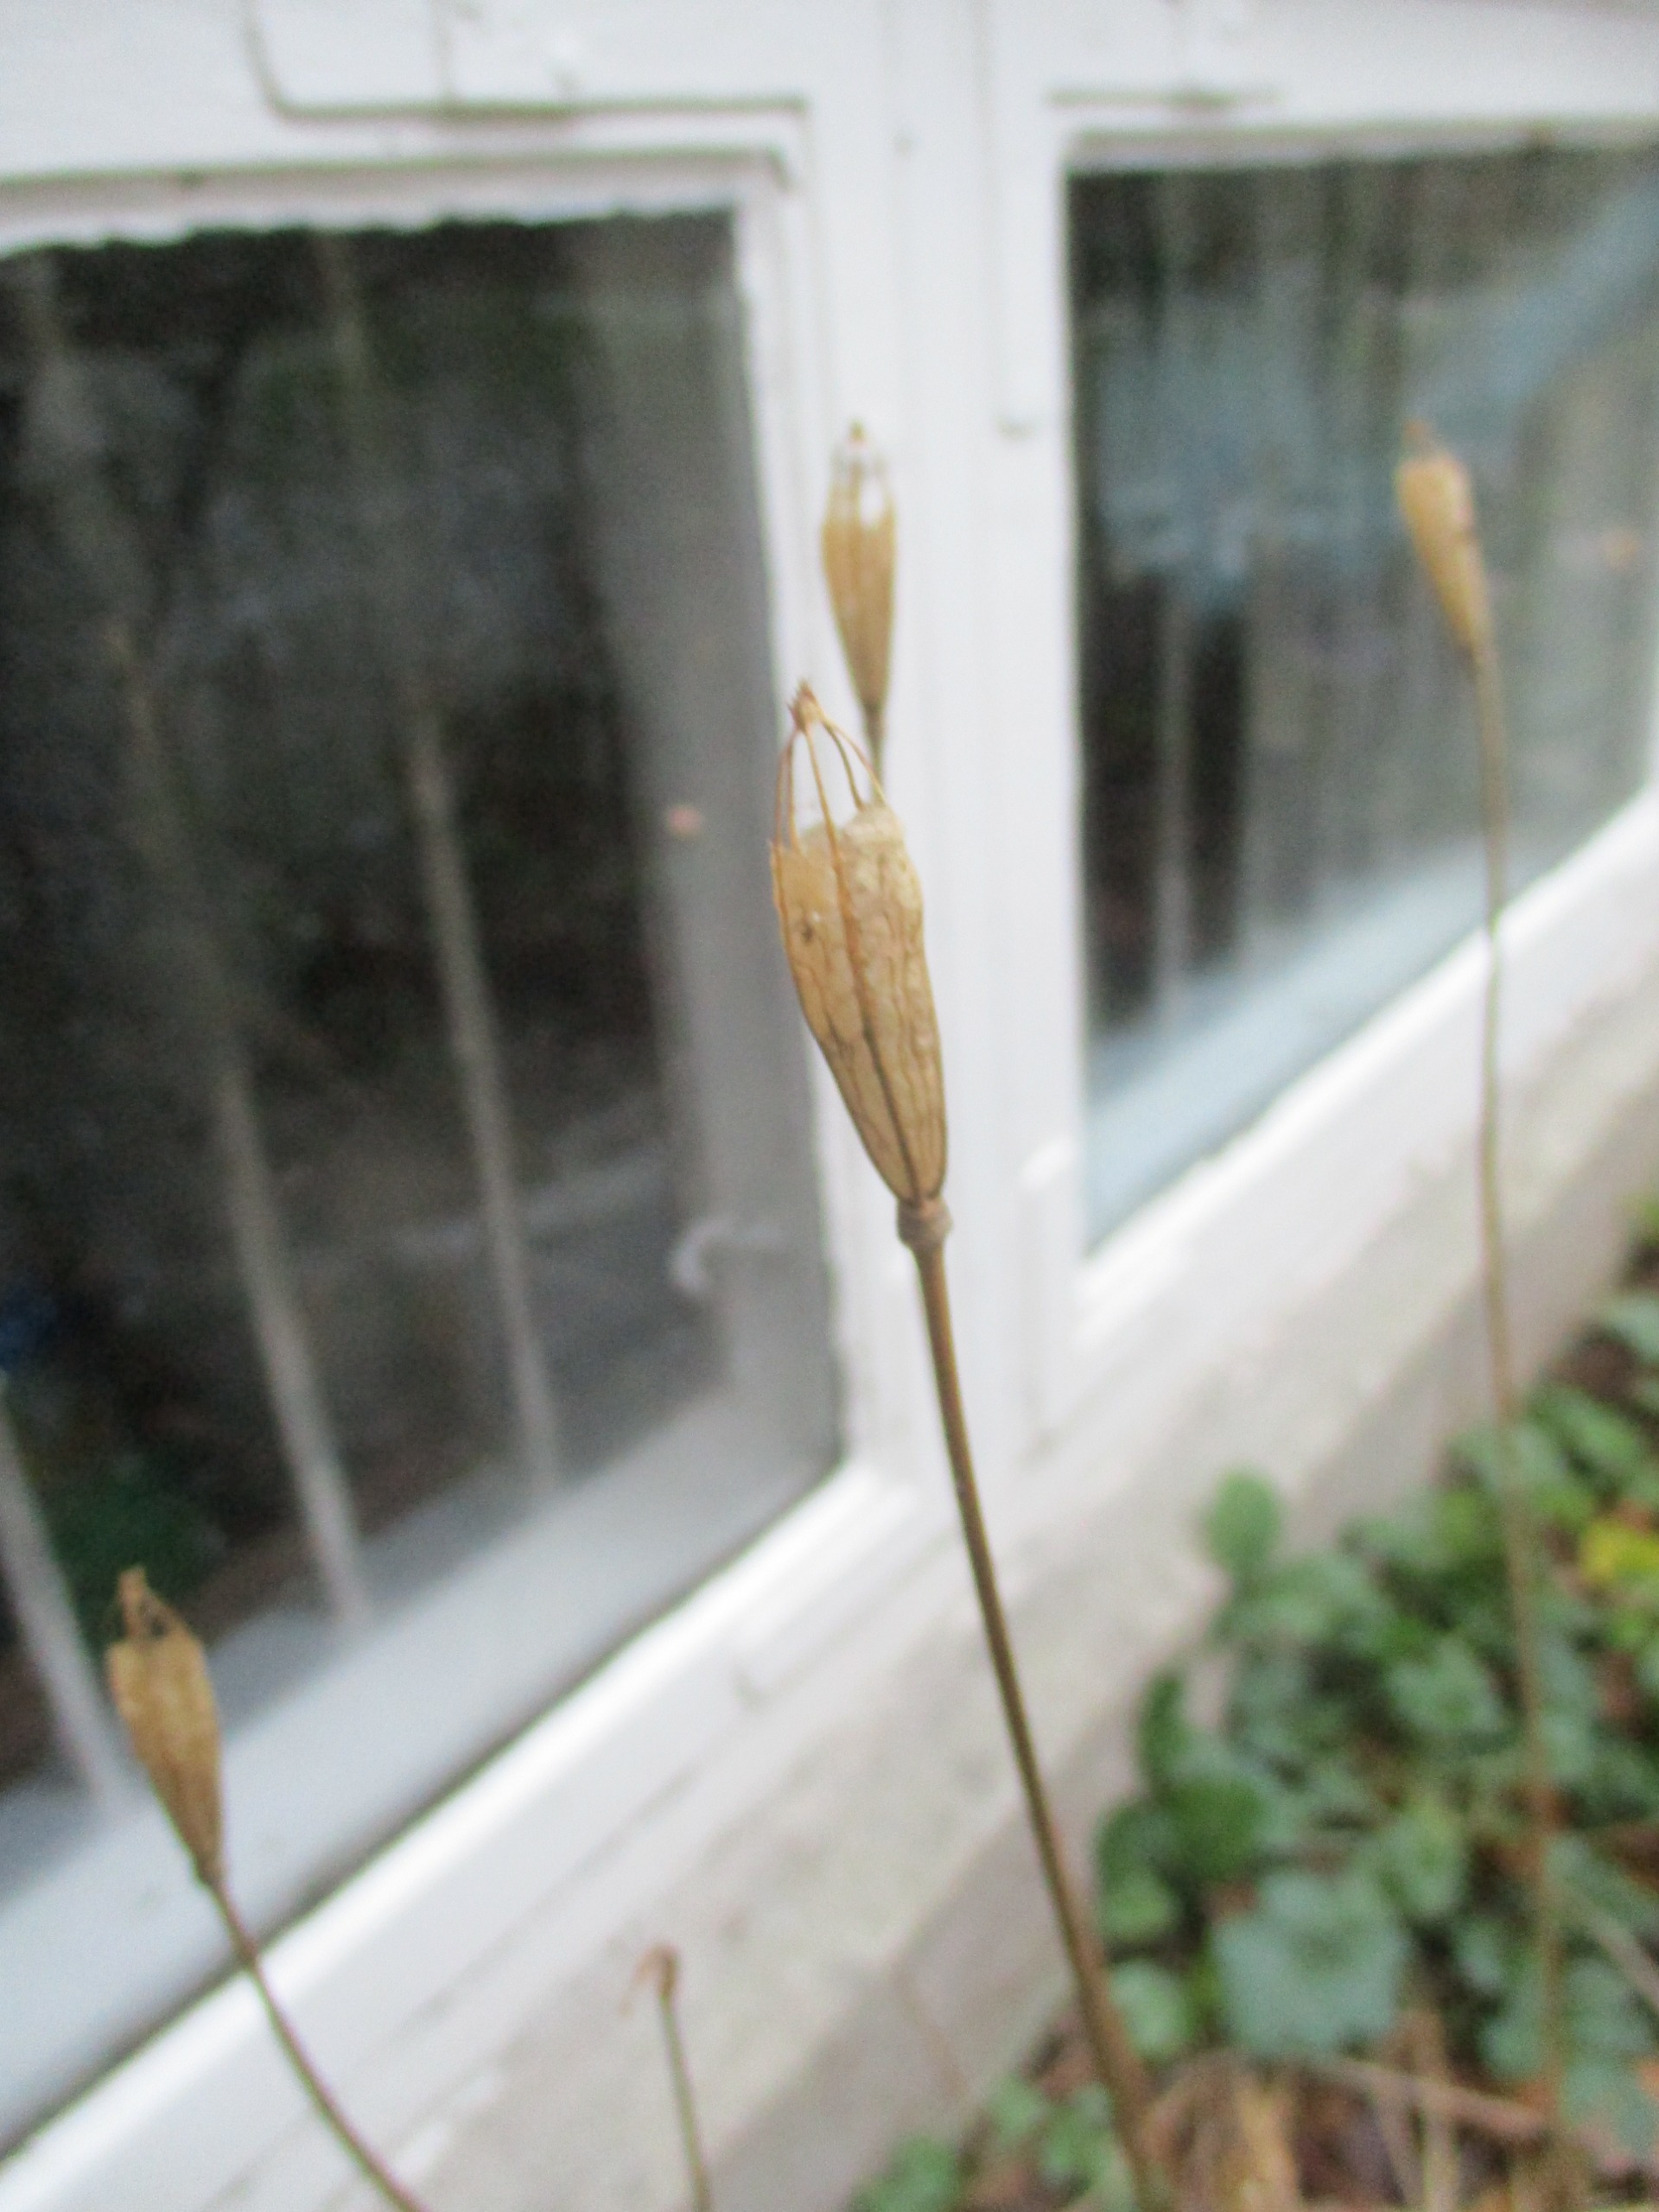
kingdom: Plantae
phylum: Tracheophyta
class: Magnoliopsida
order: Ranunculales
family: Papaveraceae
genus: Papaver
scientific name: Papaver cambricum
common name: Skov-valmue
